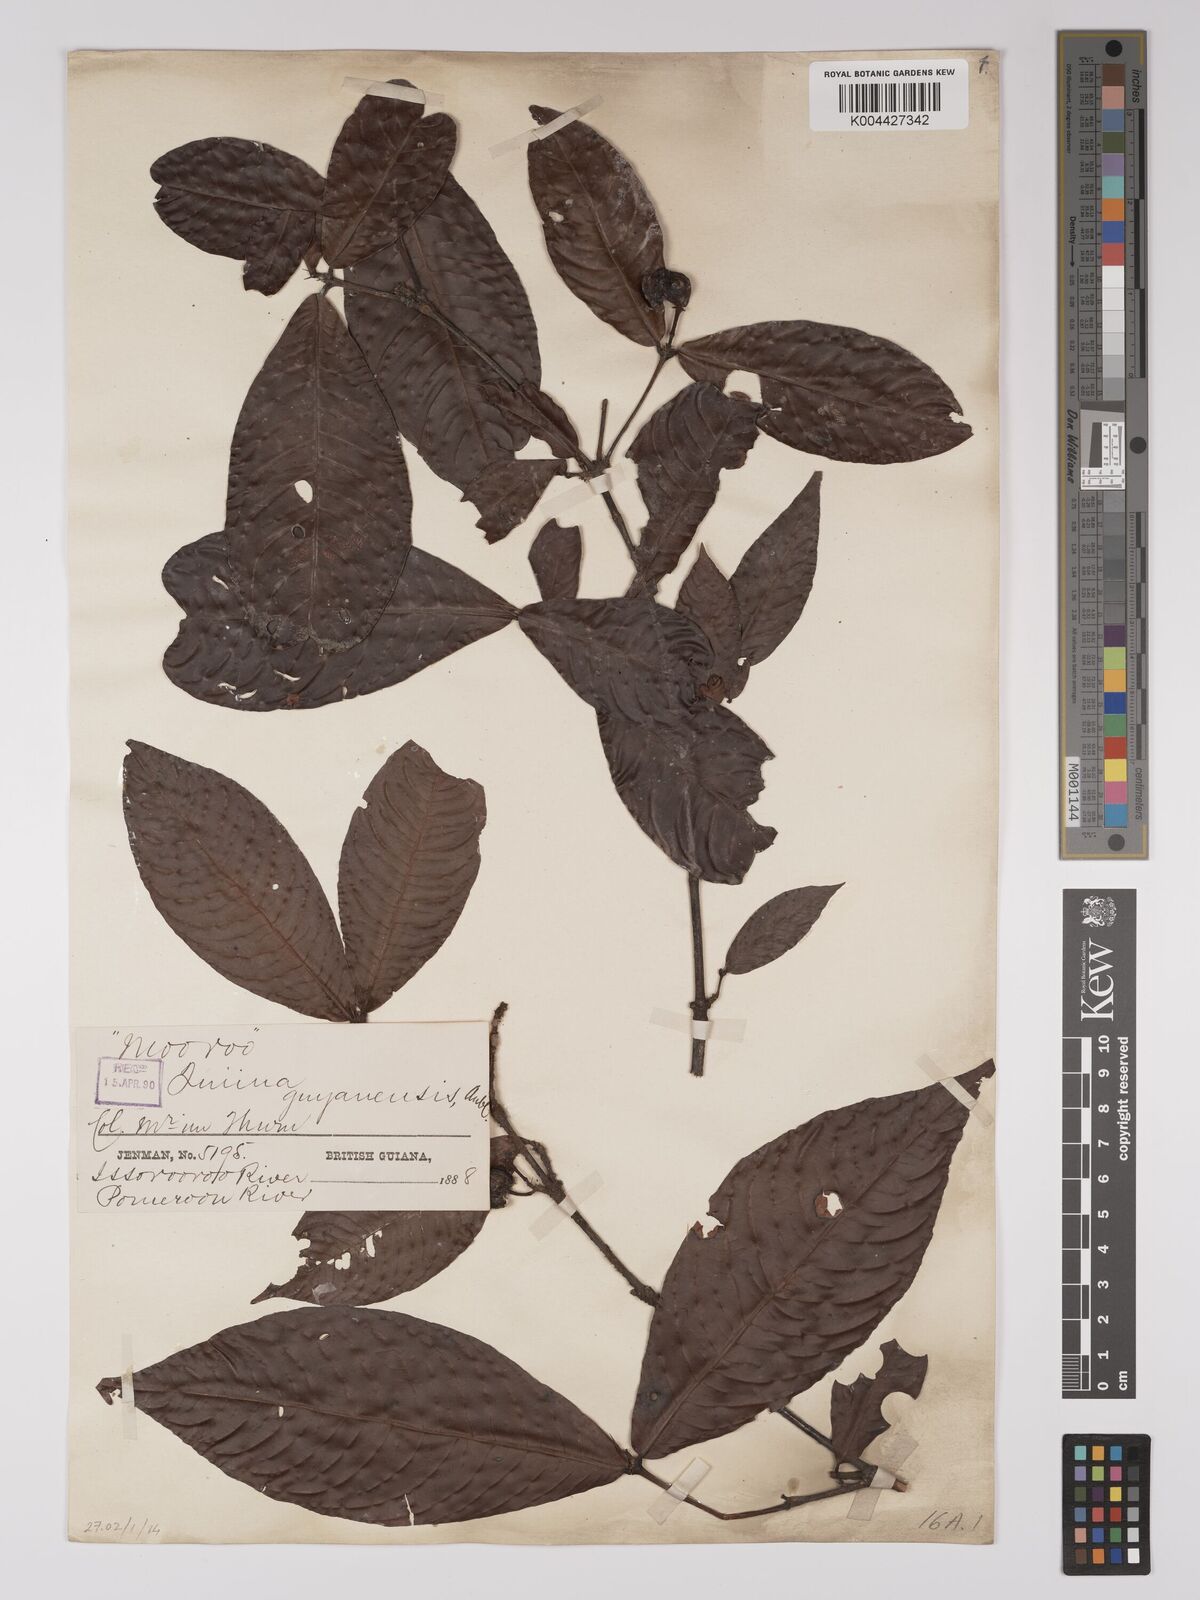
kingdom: Plantae
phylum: Tracheophyta
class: Magnoliopsida
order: Malpighiales
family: Quiinaceae
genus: Quiina
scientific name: Quiina guianensis
